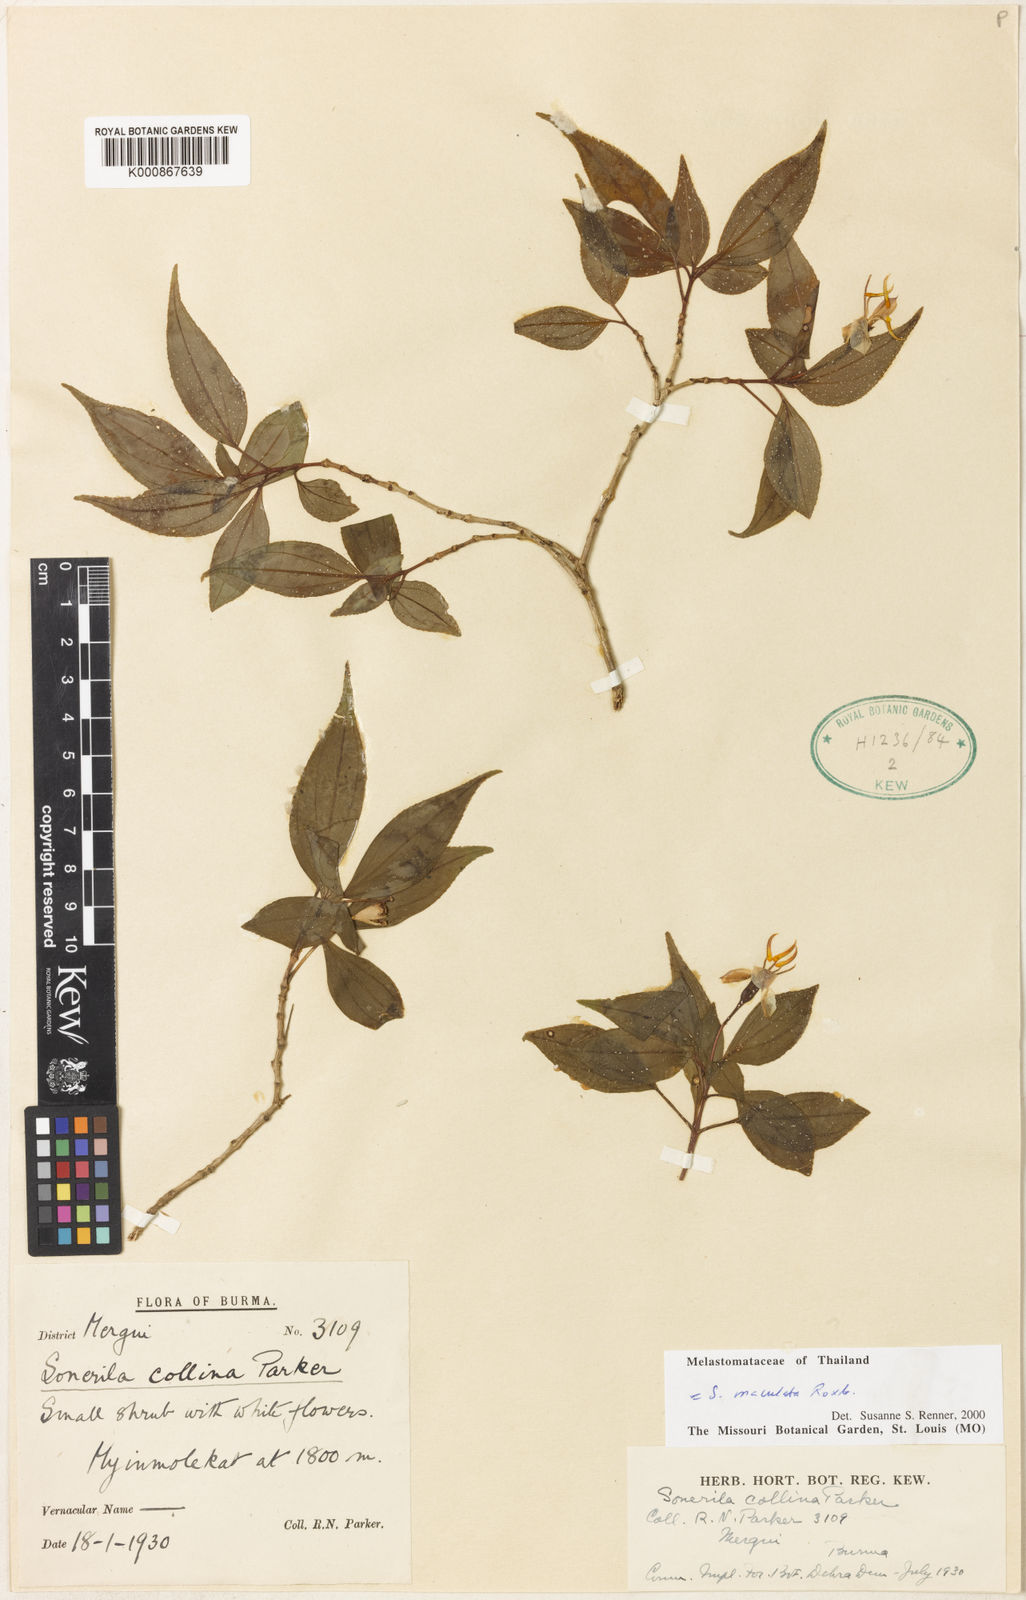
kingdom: Plantae
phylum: Tracheophyta
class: Magnoliopsida
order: Myrtales
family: Melastomataceae
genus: Sonerila
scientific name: Sonerila maculata
